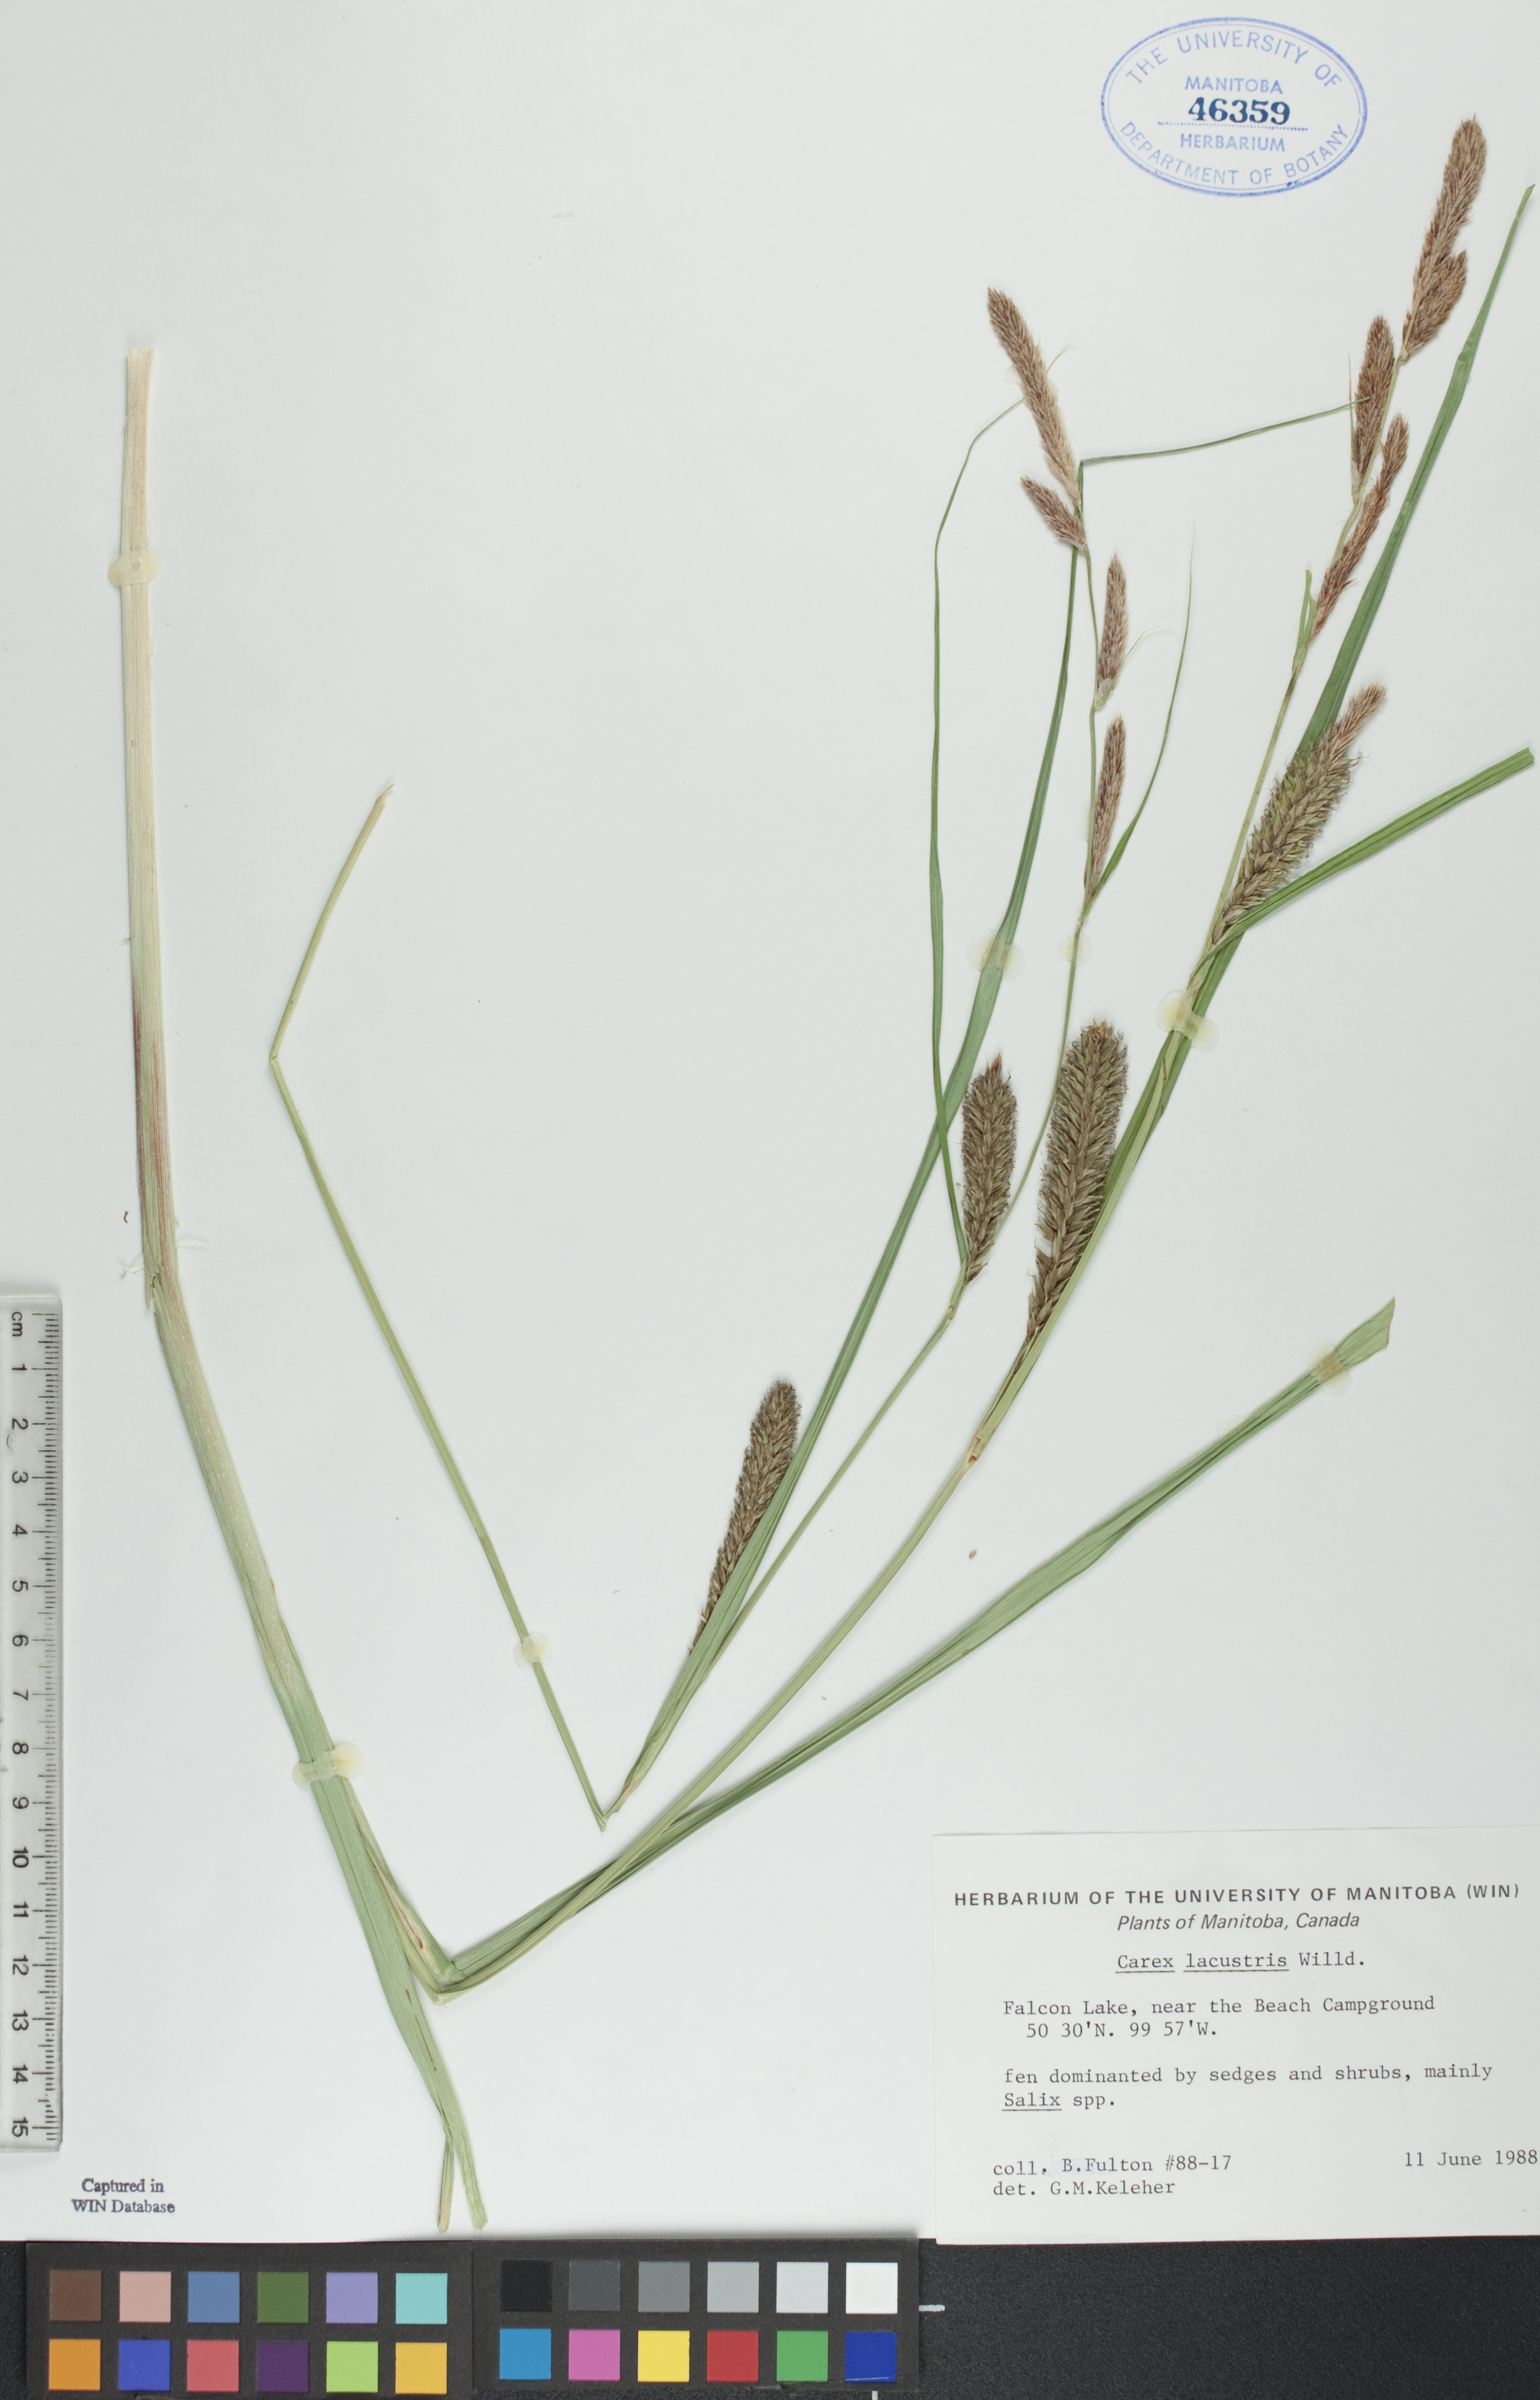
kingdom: Plantae
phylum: Tracheophyta
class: Liliopsida
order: Poales
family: Cyperaceae
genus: Carex
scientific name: Carex lacustris
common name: Common lake sedge
